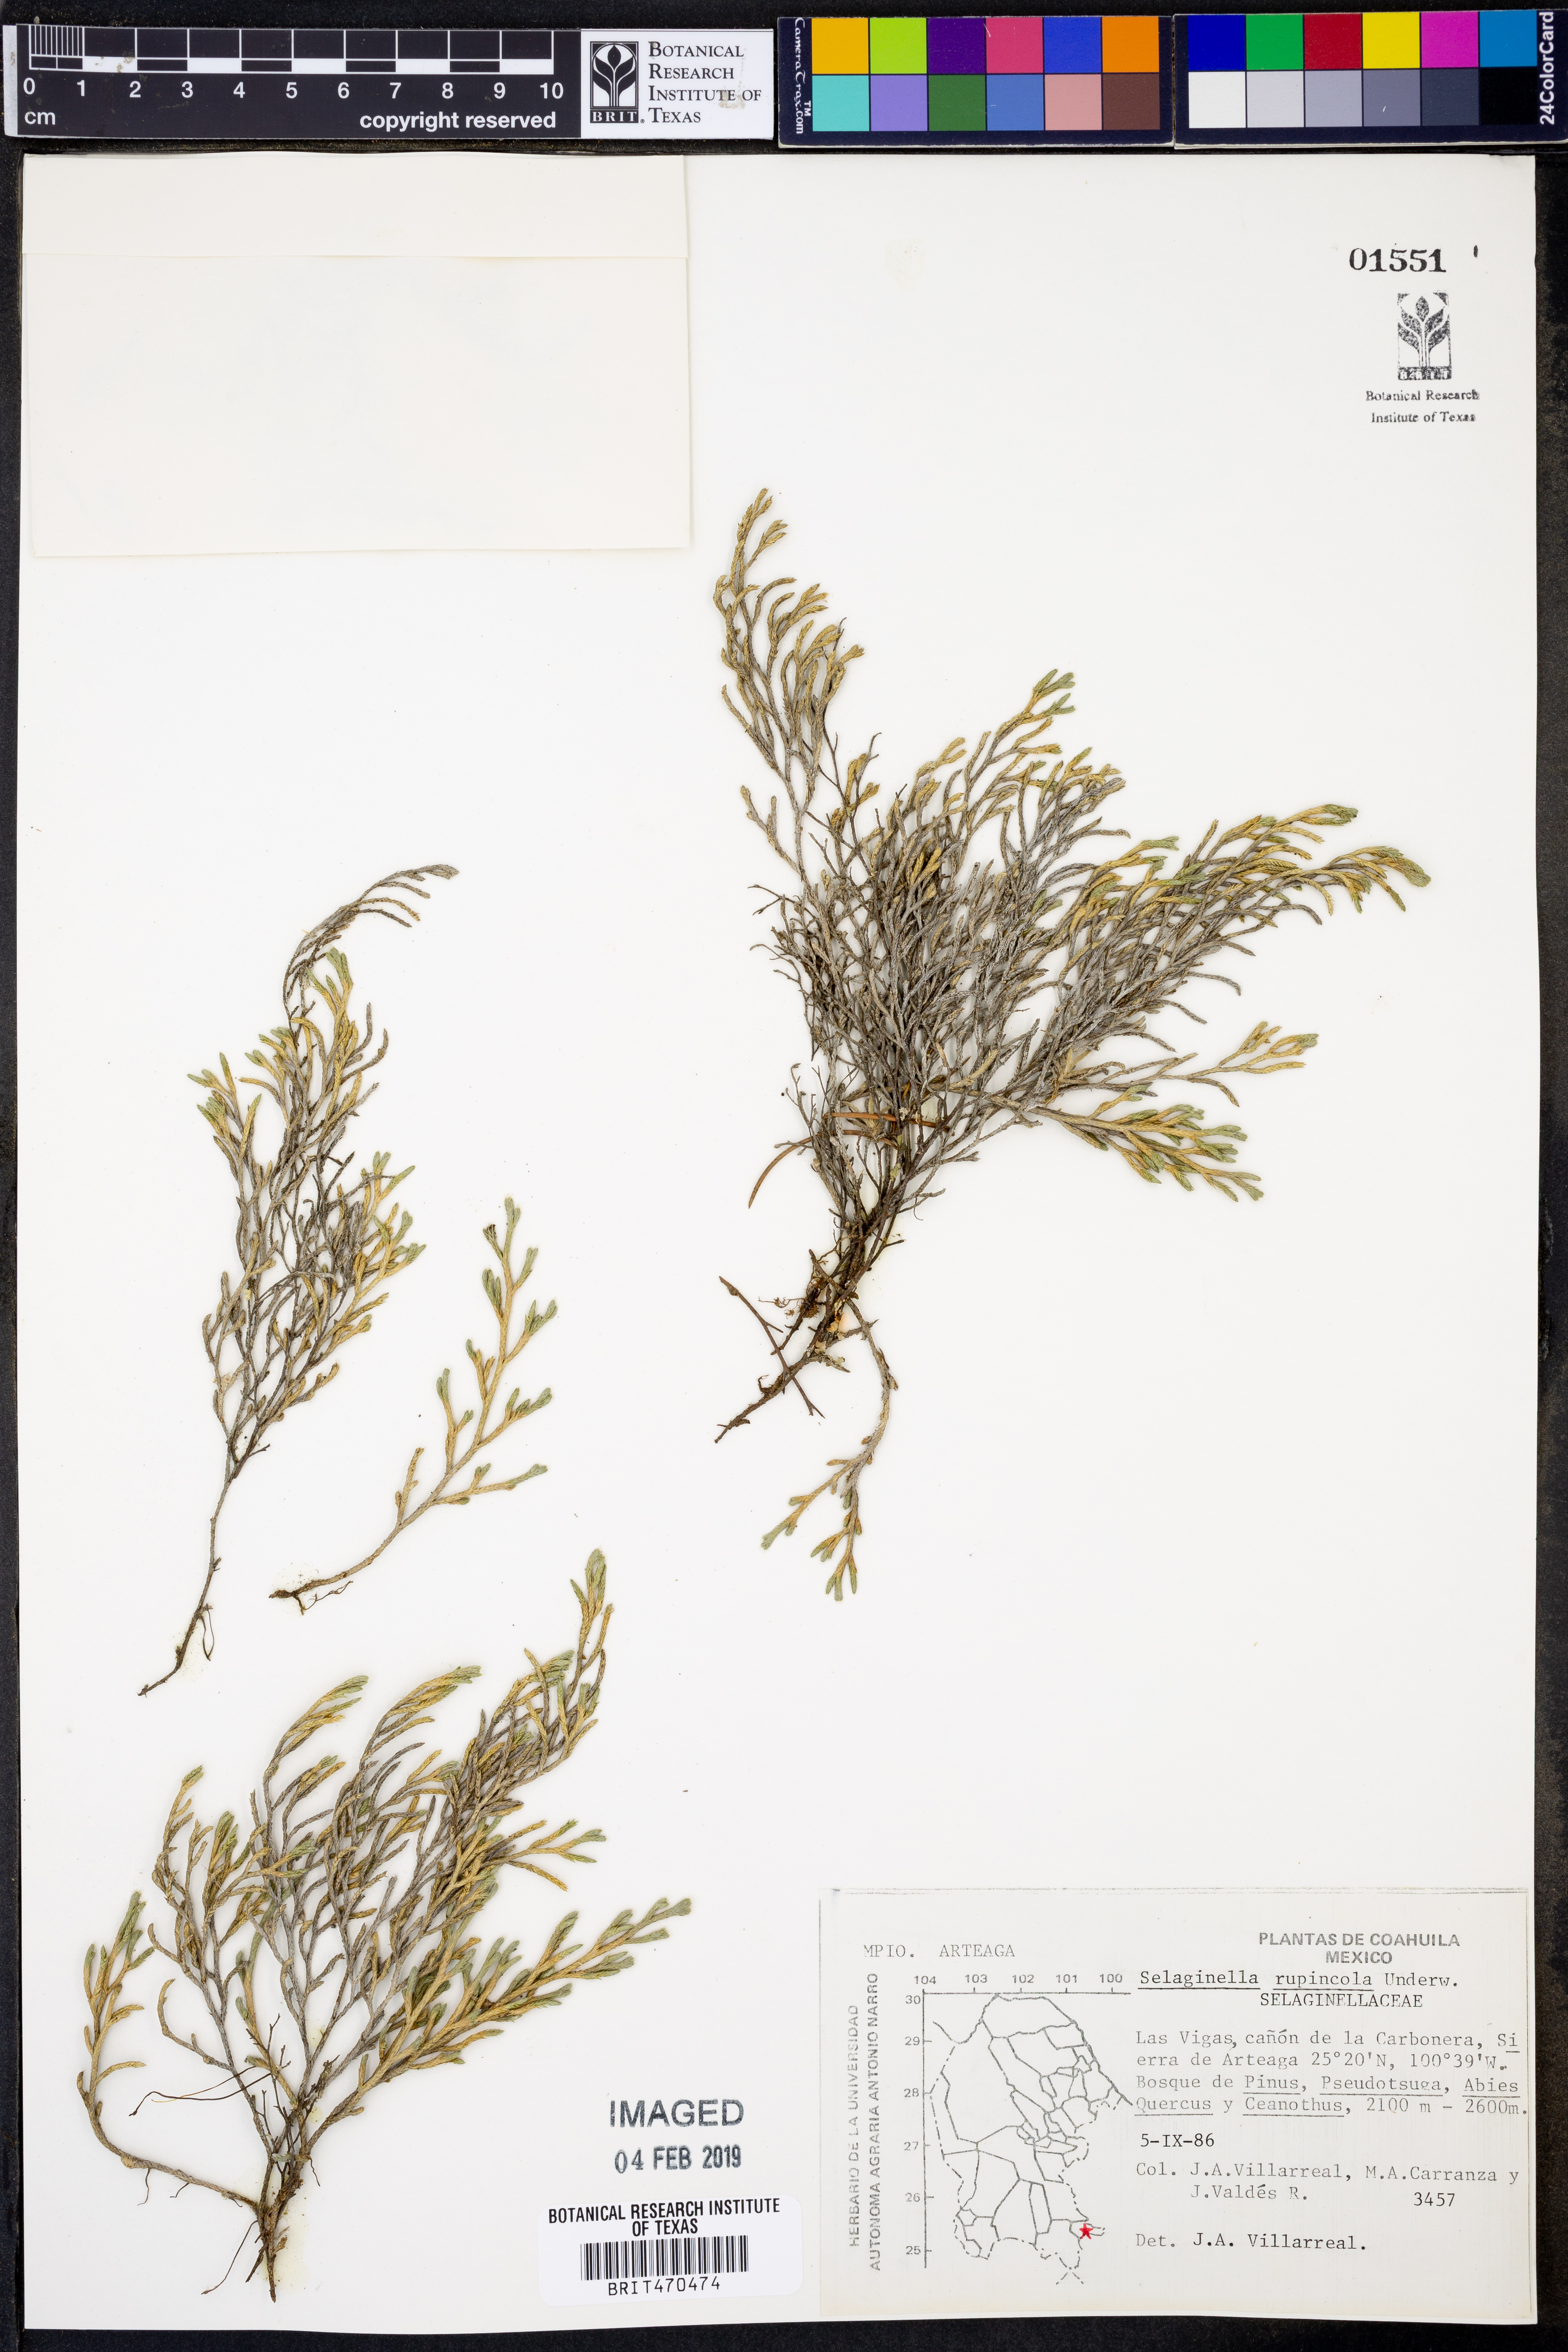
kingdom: Plantae
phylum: Tracheophyta
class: Lycopodiopsida
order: Selaginellales
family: Selaginellaceae
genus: Selaginella
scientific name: Selaginella rupincola
